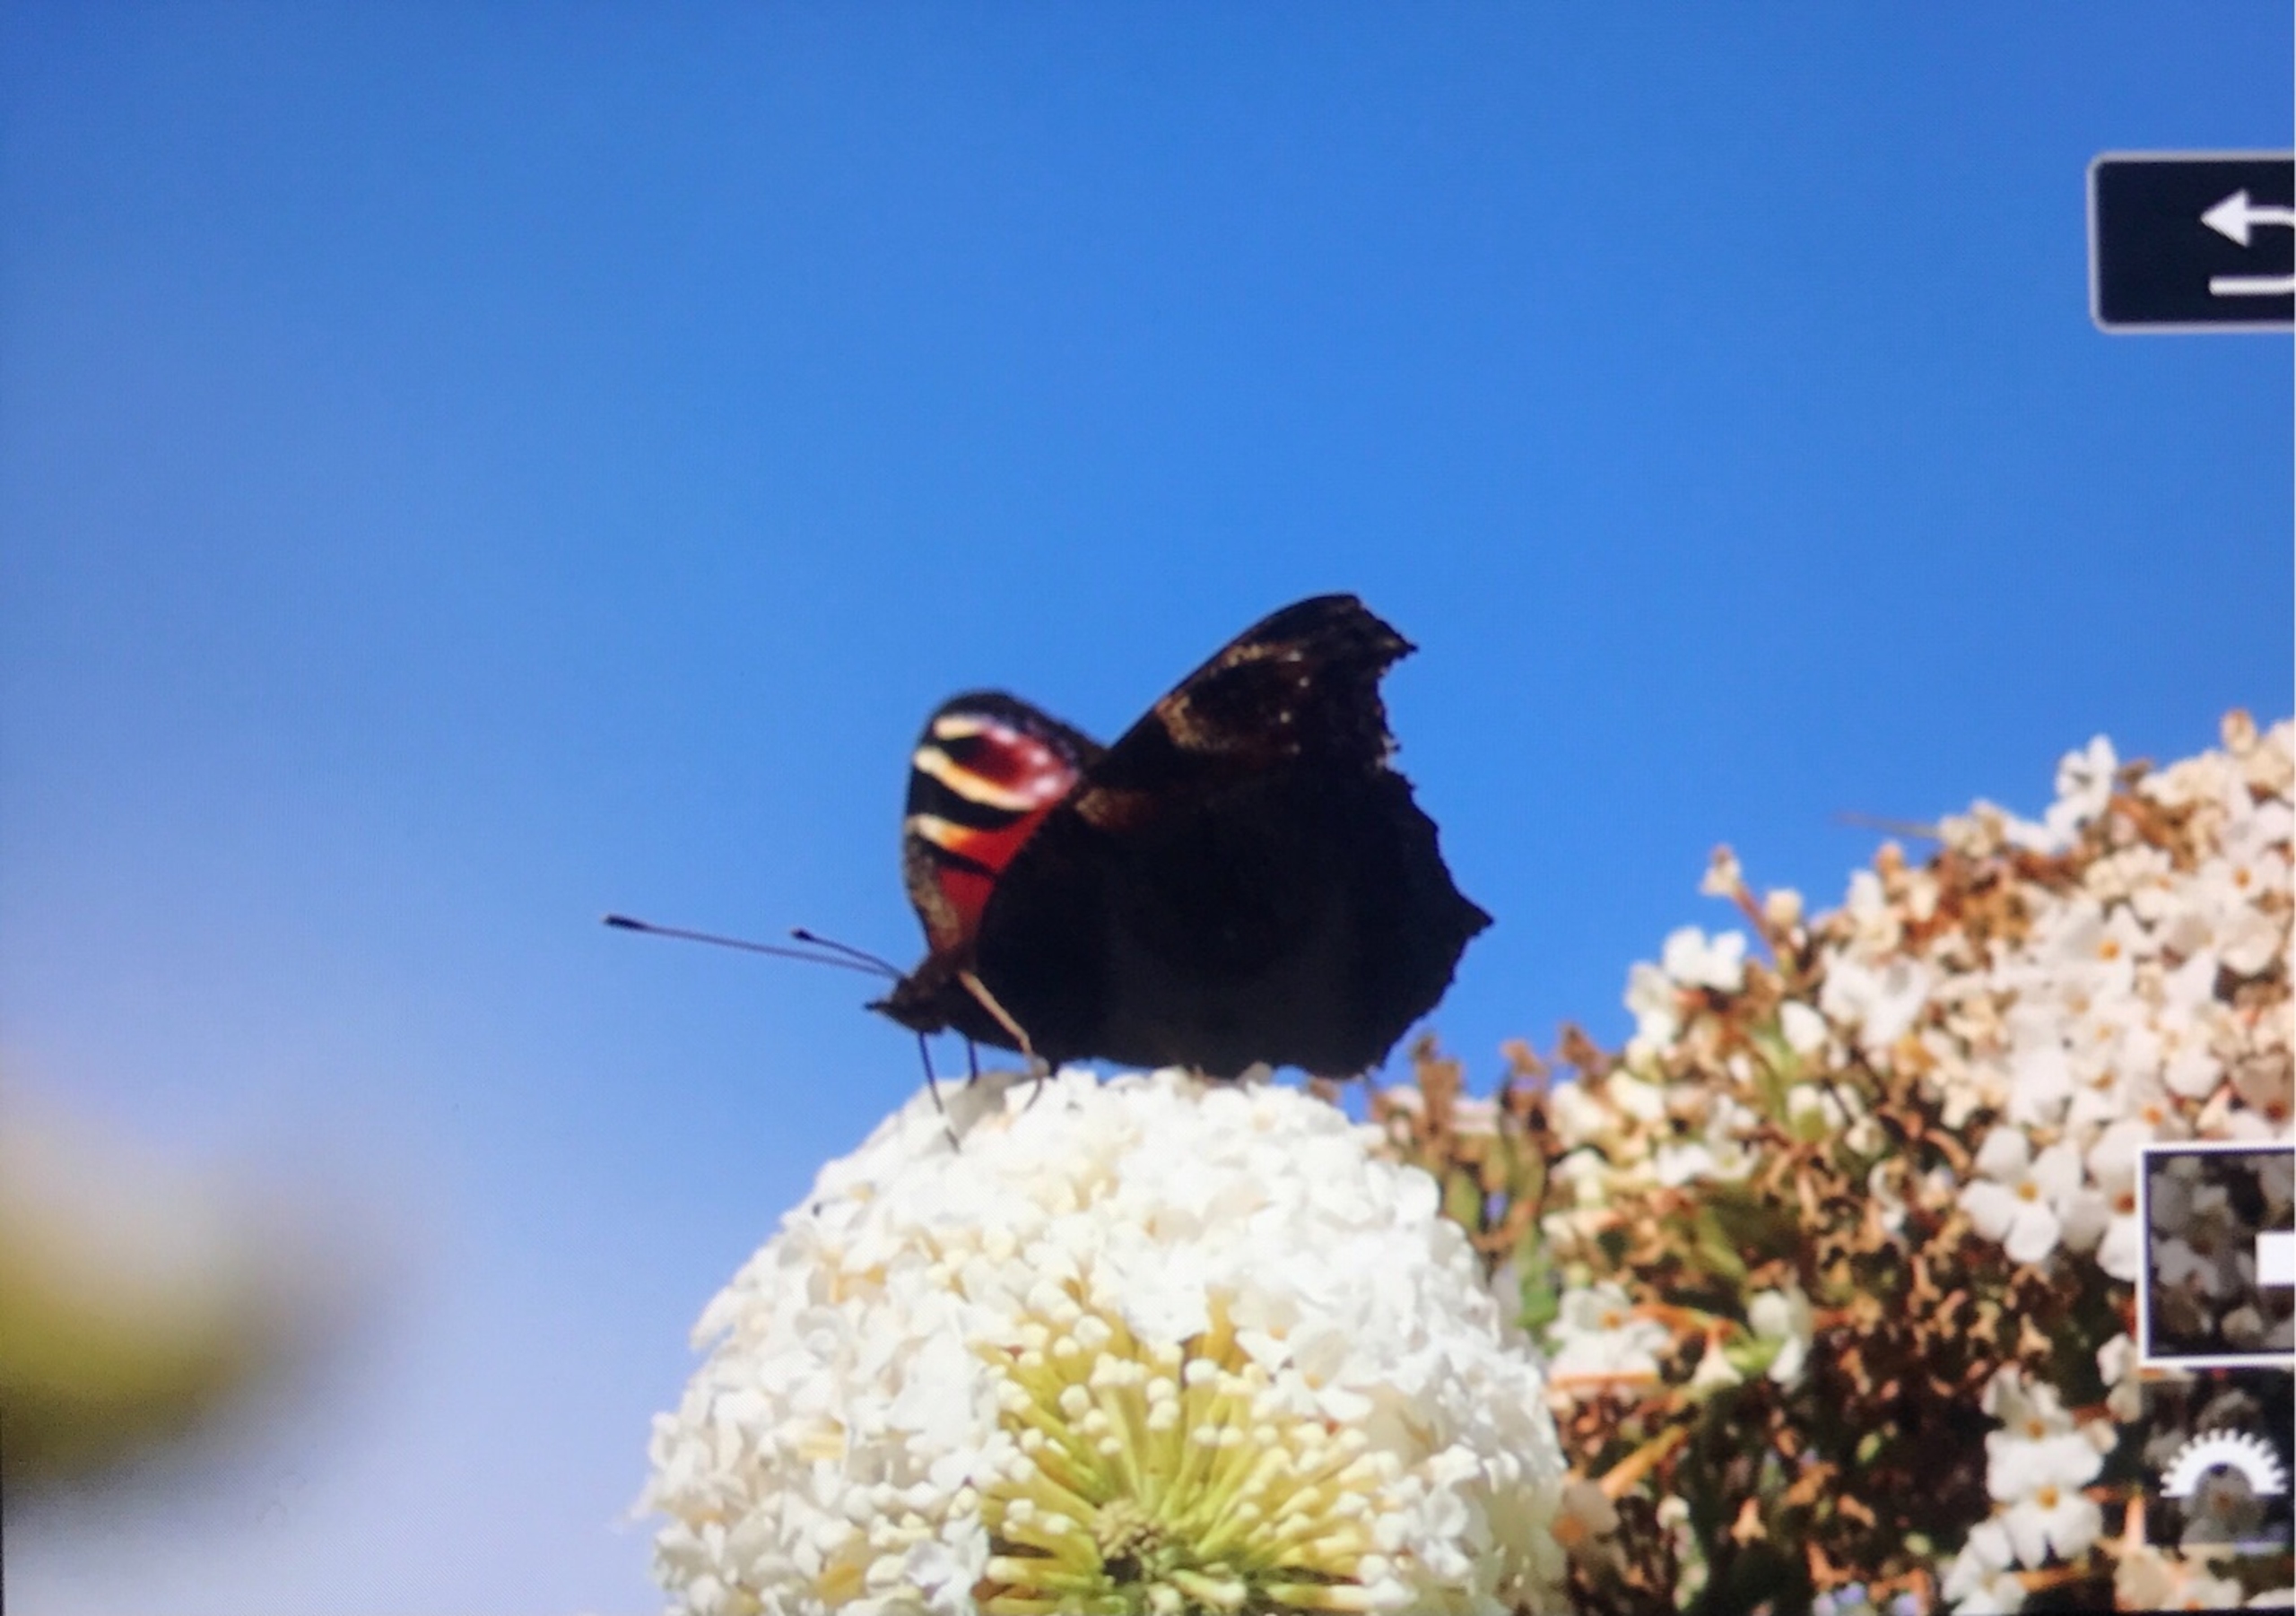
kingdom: Animalia
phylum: Arthropoda
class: Insecta
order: Lepidoptera
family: Nymphalidae
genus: Aglais
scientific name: Aglais io
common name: Dagpåfugleøje
